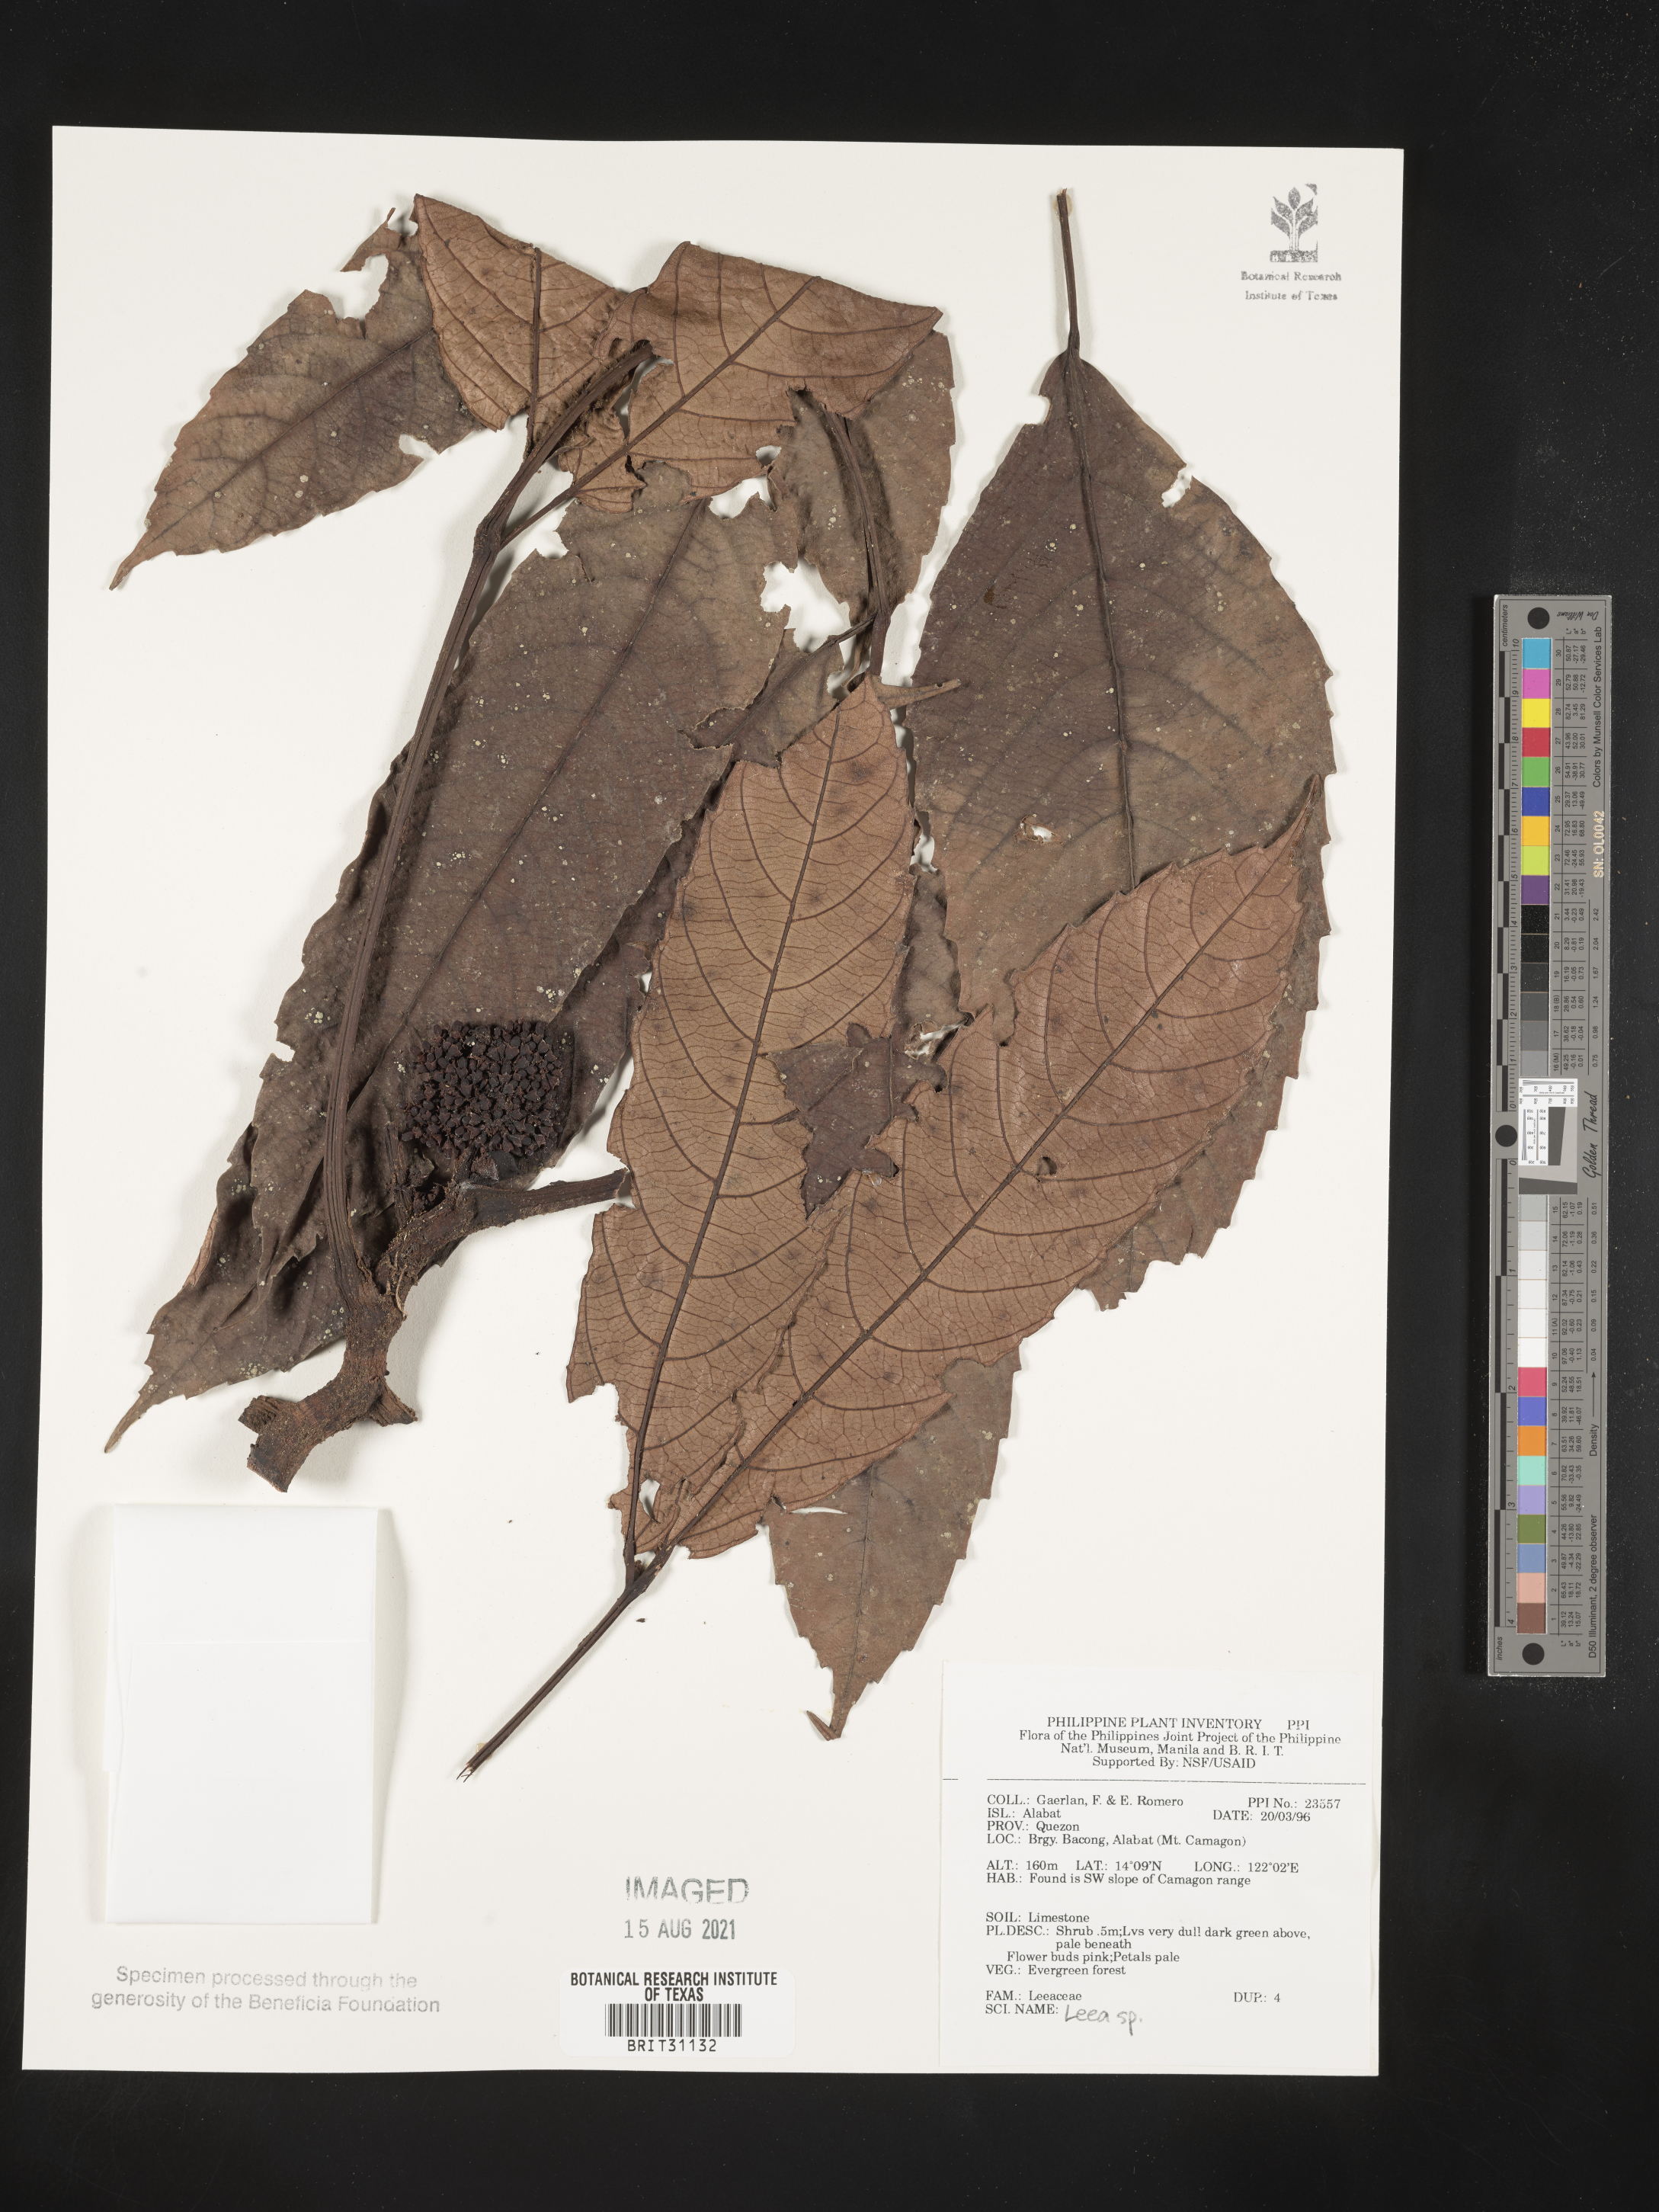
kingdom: Plantae
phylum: Tracheophyta
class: Magnoliopsida
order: Vitales
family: Vitaceae
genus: Leea
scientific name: Leea
